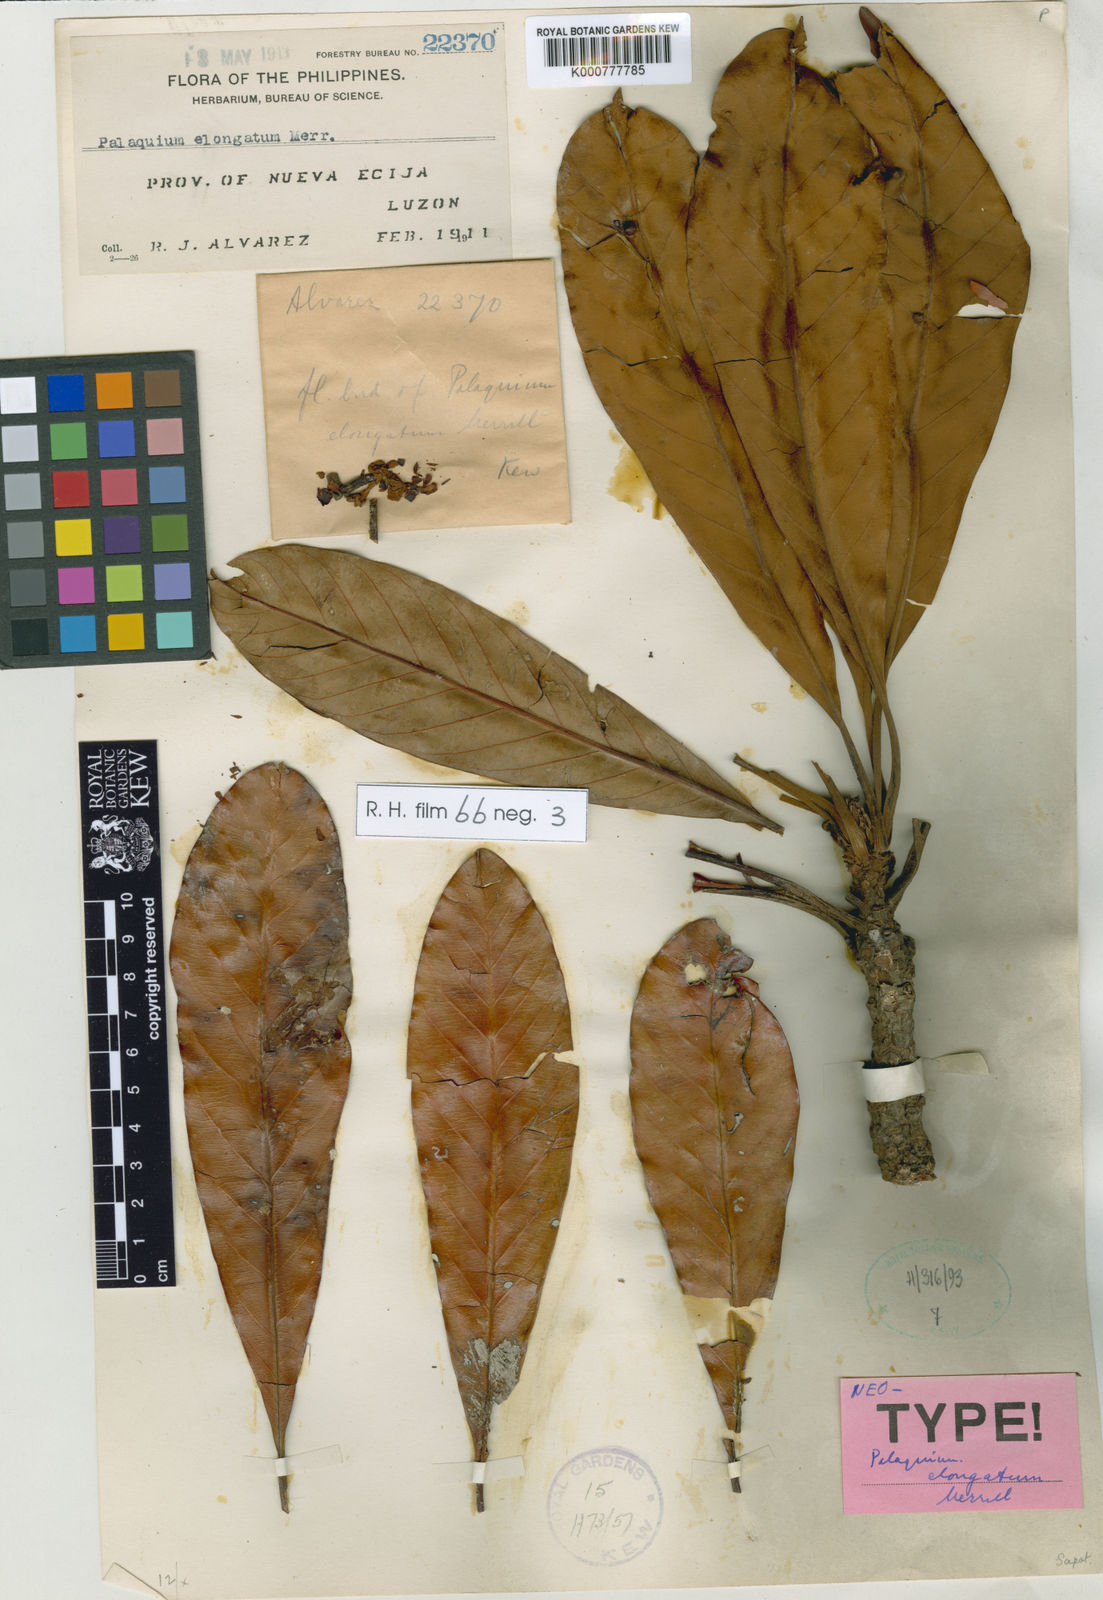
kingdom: Plantae
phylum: Tracheophyta
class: Magnoliopsida
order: Ericales
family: Sapotaceae
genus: Palaquium
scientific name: Palaquium elongatum
